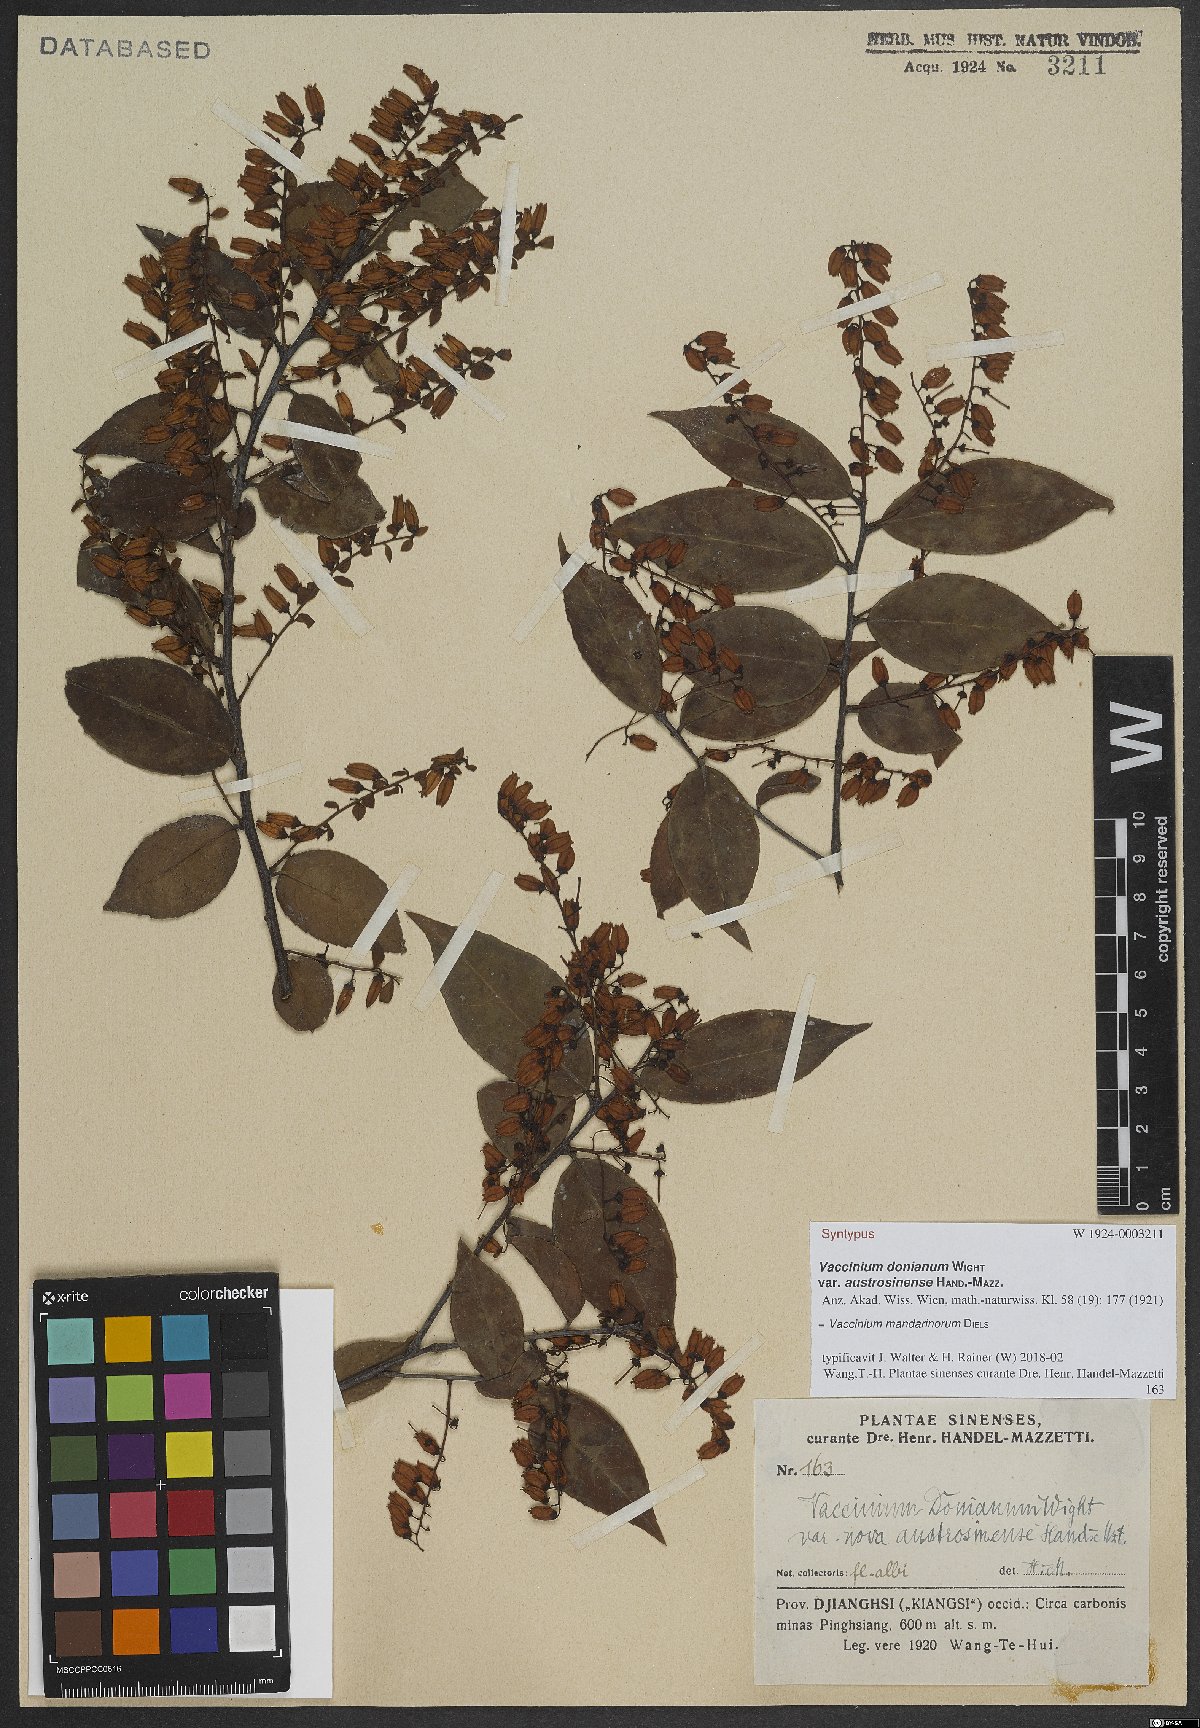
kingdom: Plantae
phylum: Tracheophyta
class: Magnoliopsida
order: Ericales
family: Ericaceae
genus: Vaccinium
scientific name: Vaccinium mandarinorum
